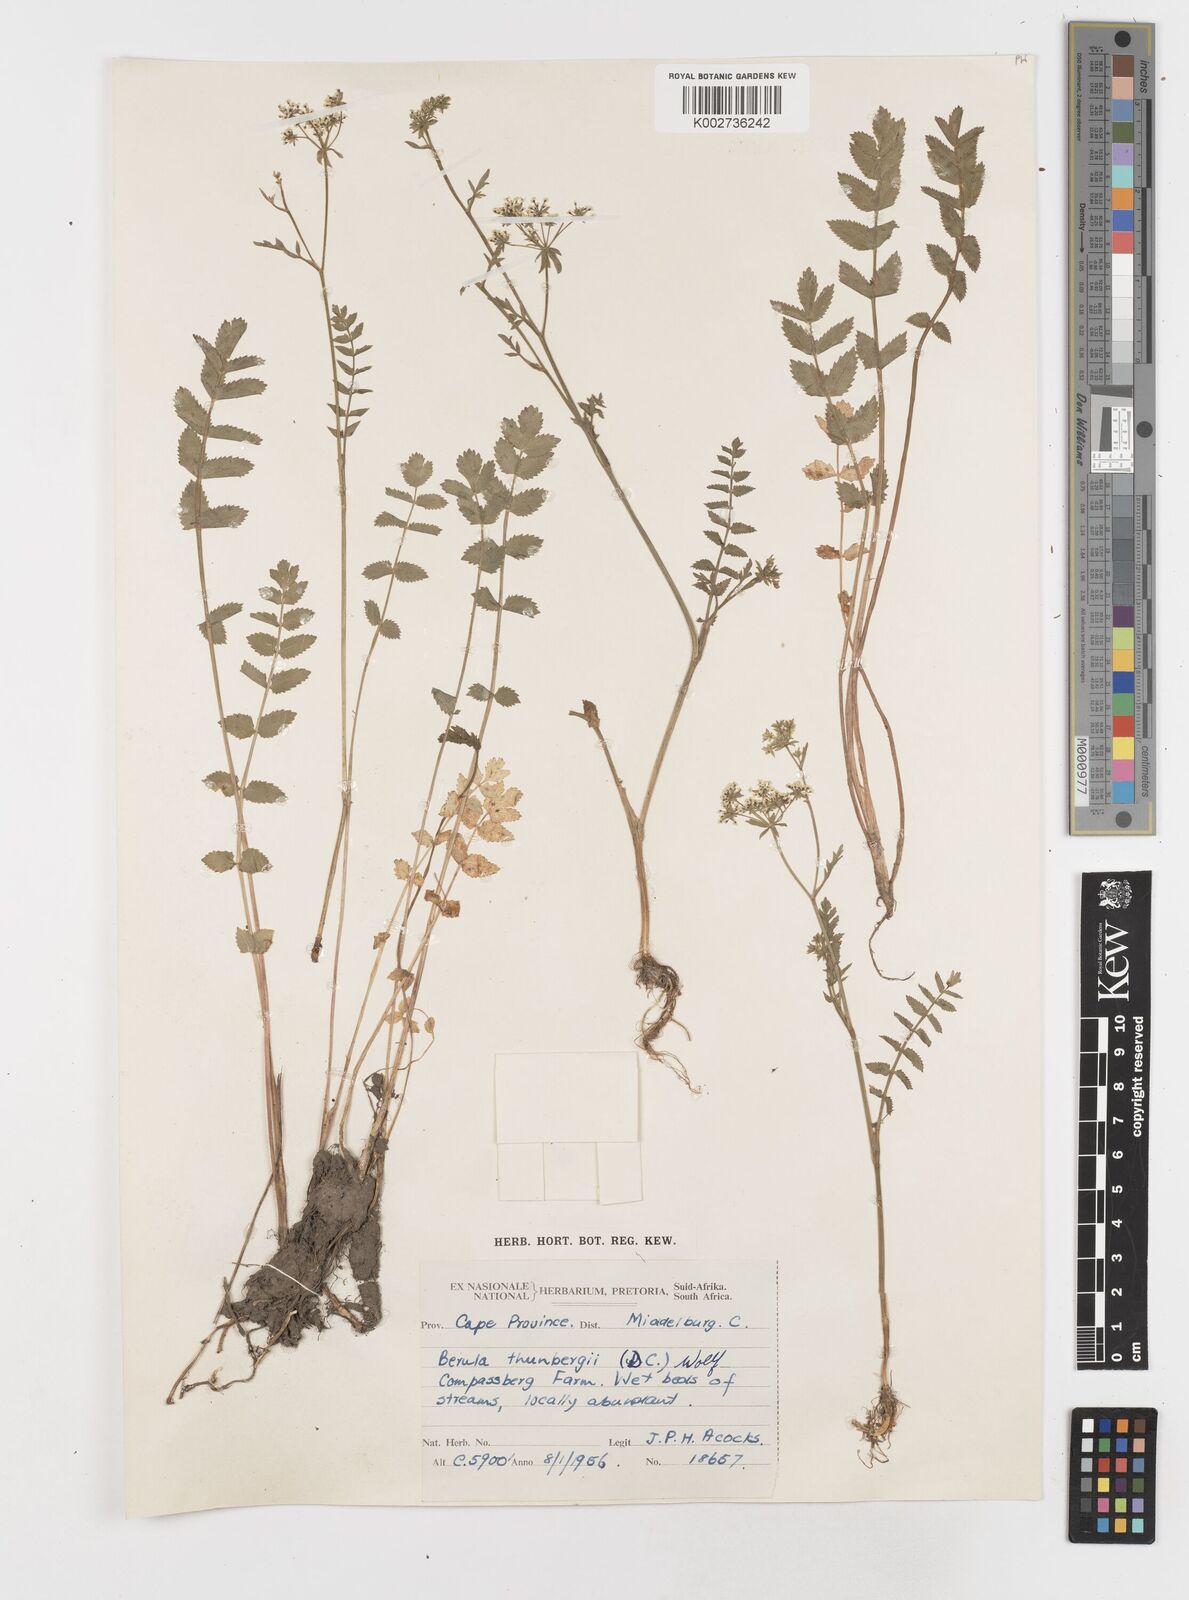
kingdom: Plantae
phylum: Tracheophyta
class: Magnoliopsida
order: Apiales
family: Apiaceae
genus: Berula
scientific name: Berula erecta
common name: Lesser water-parsnip
